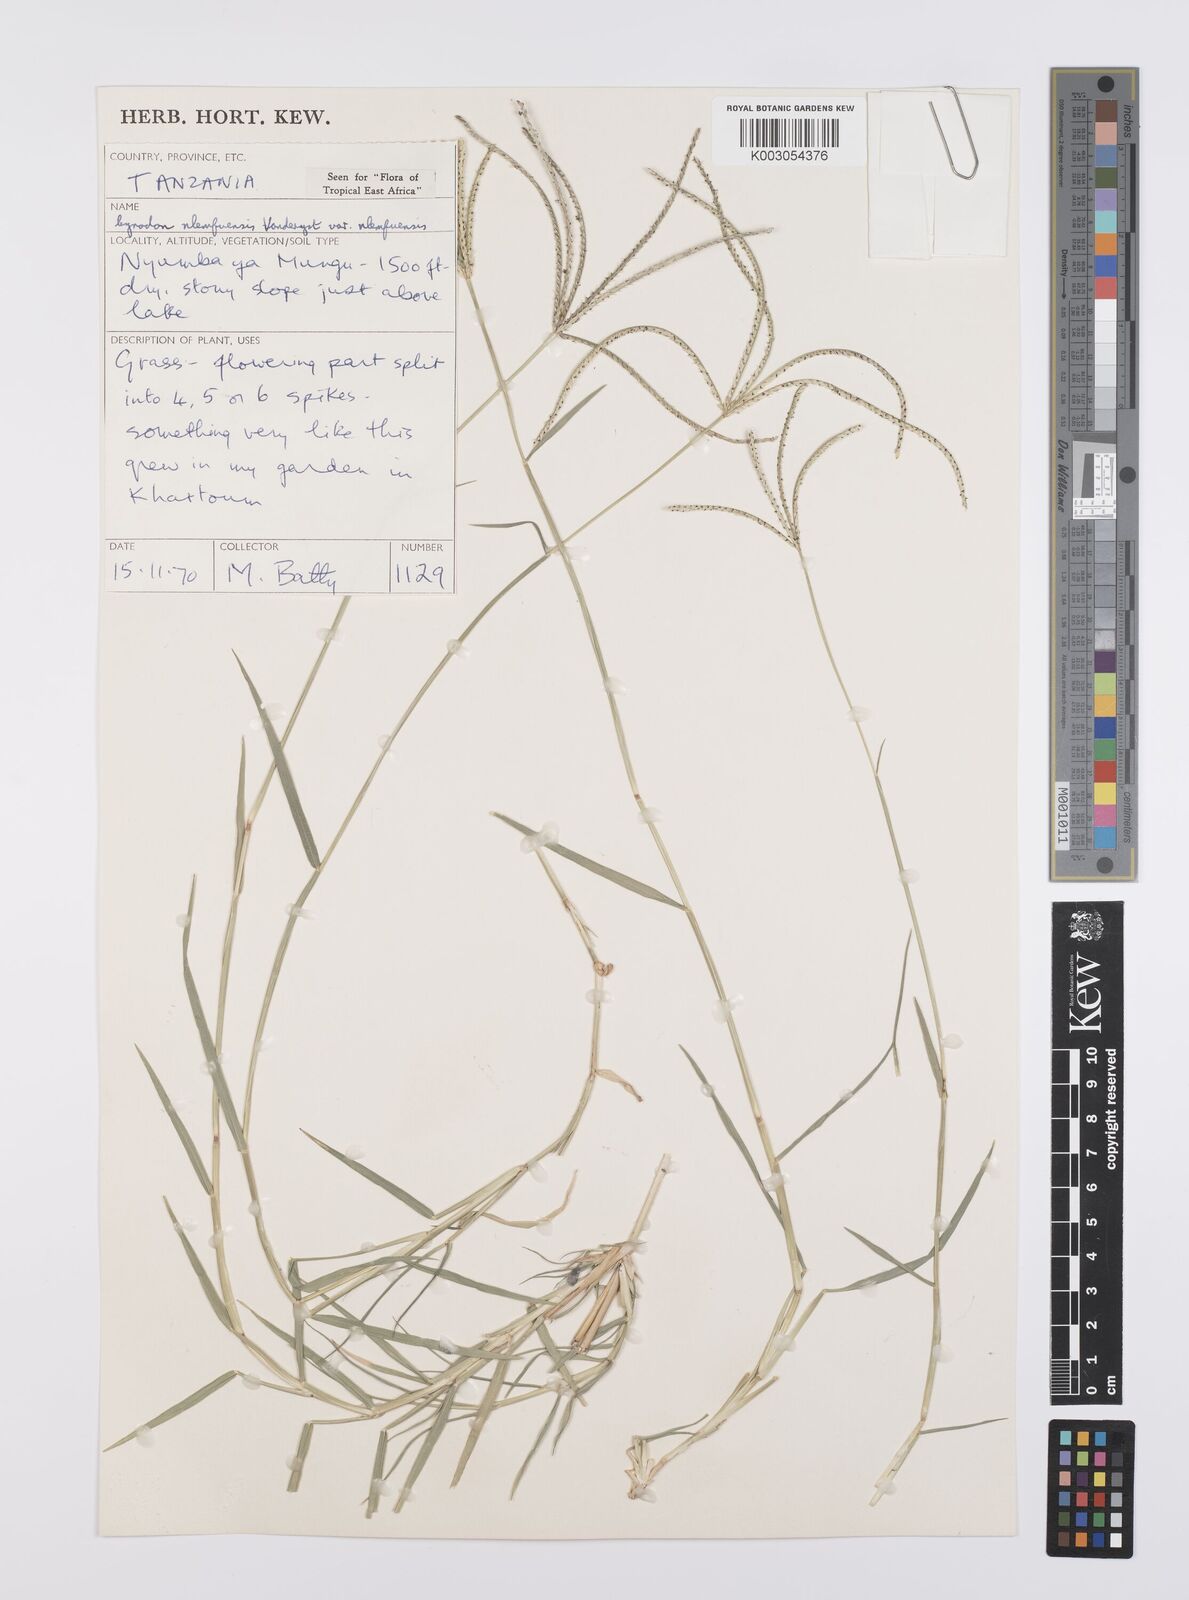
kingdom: Plantae
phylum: Tracheophyta
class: Liliopsida
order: Poales
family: Poaceae
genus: Cynodon
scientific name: Cynodon nlemfuensis
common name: African bermudagrass
